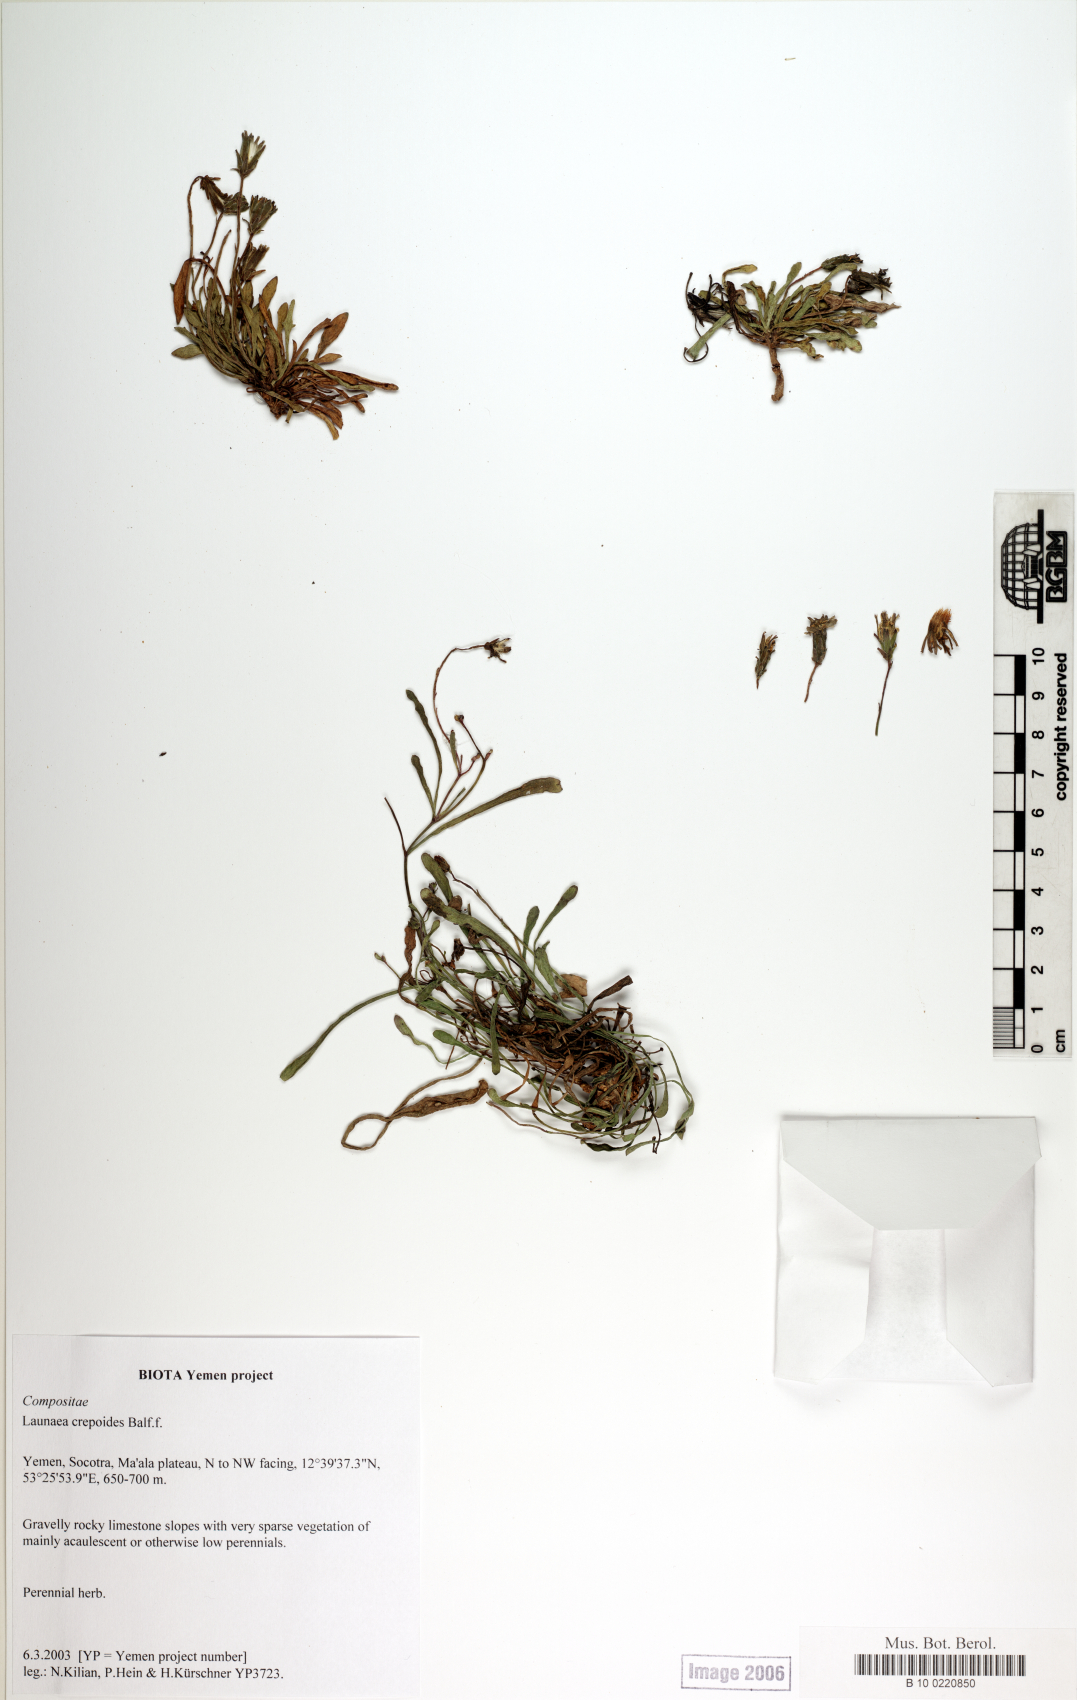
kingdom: Plantae
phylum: Tracheophyta
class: Magnoliopsida
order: Asterales
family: Asteraceae
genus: Launaea
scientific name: Launaea crepoides
